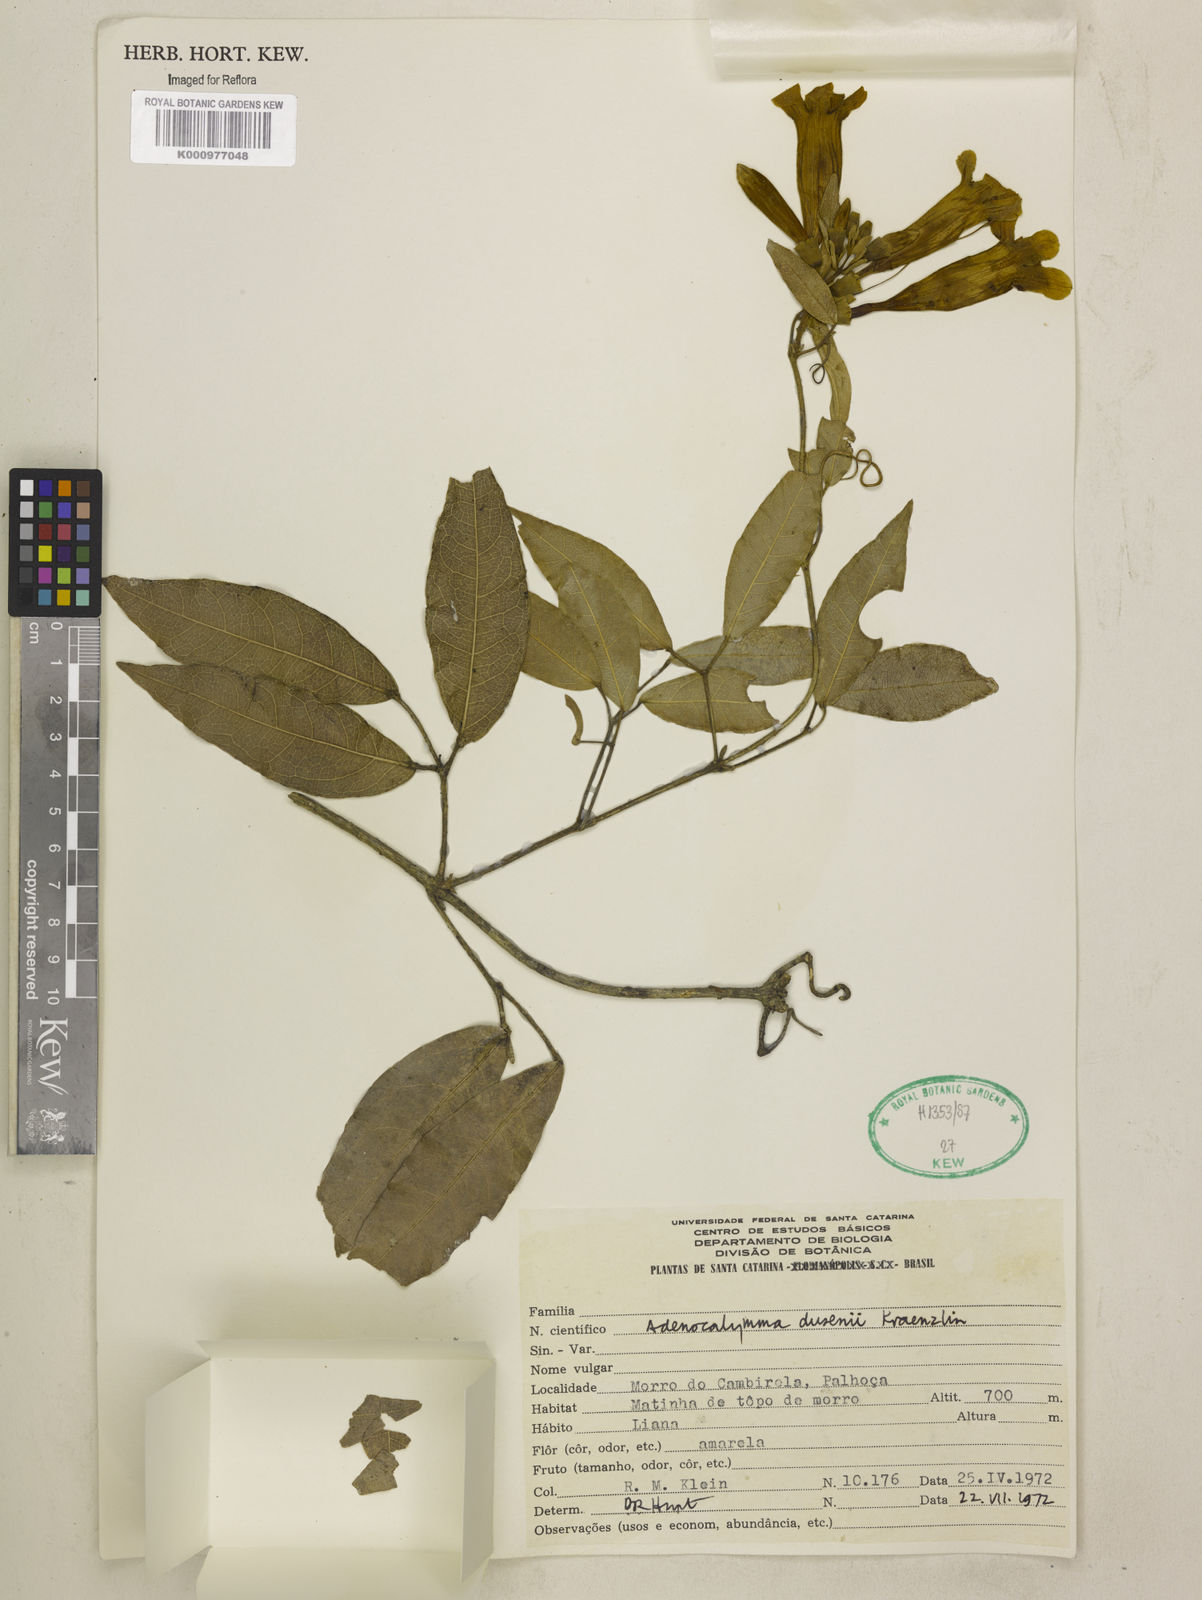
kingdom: Plantae
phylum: Tracheophyta
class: Magnoliopsida
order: Lamiales
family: Bignoniaceae
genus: Adenocalymma
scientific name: Adenocalymma dusenii
